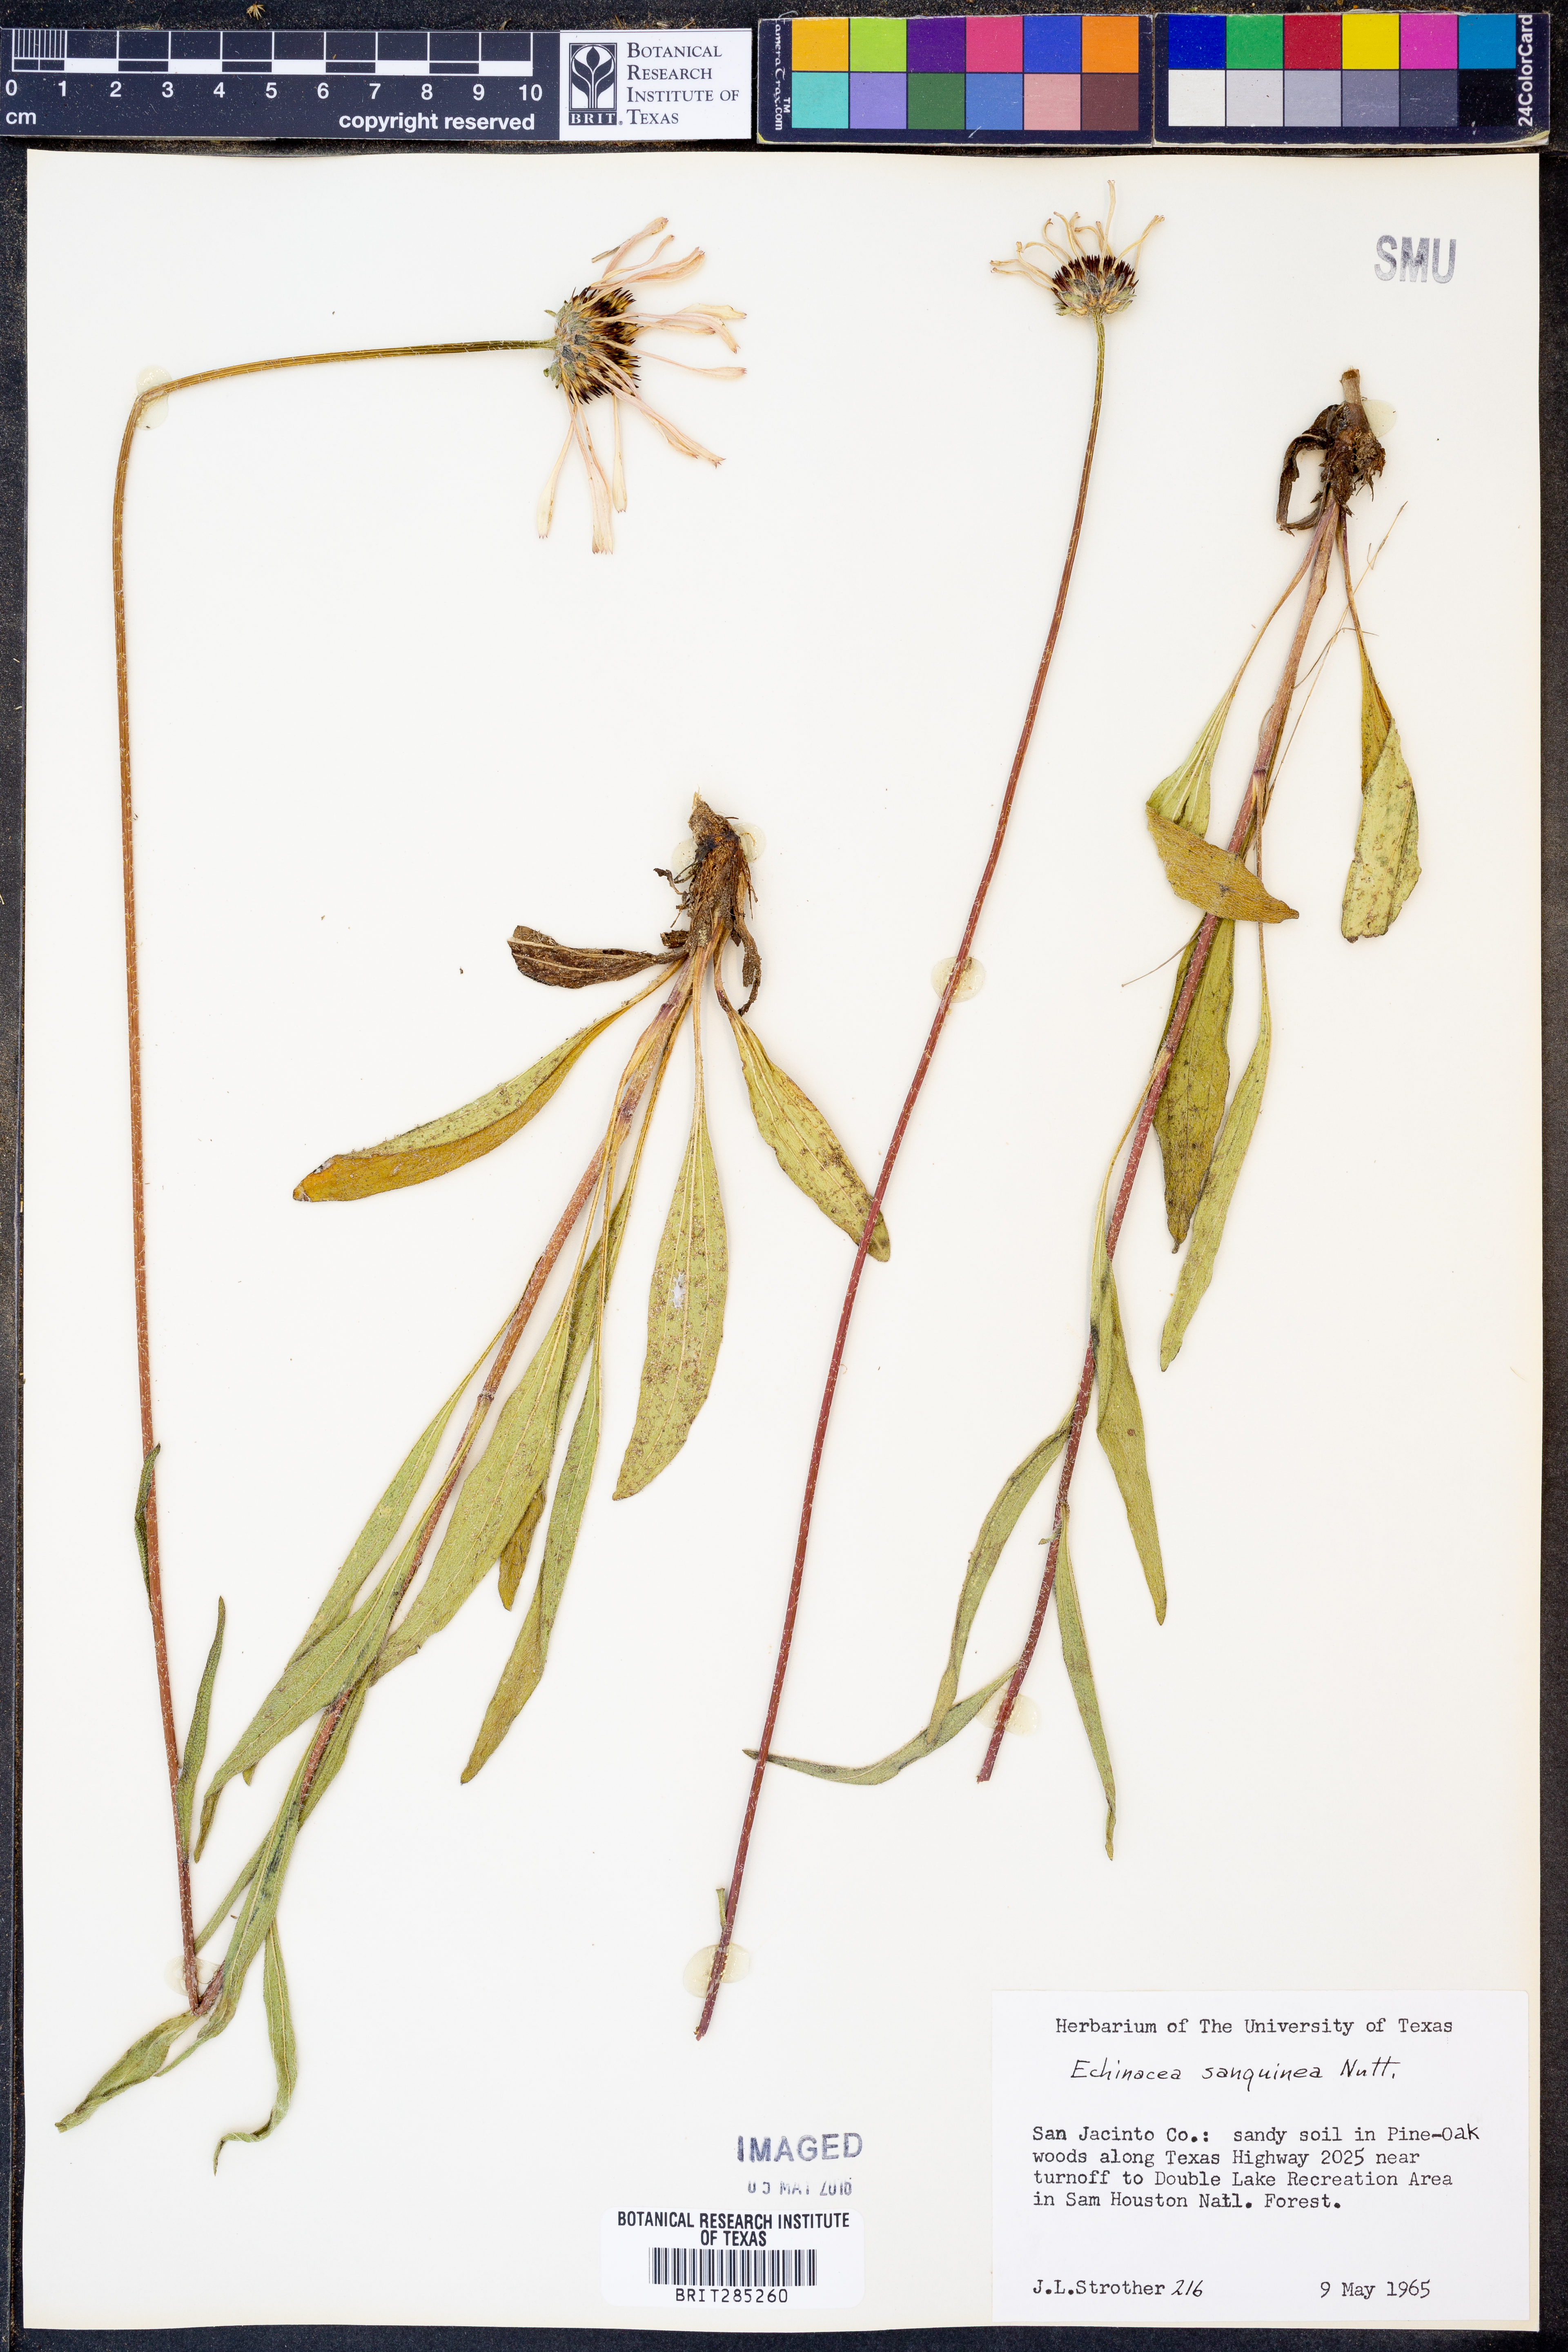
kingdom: Plantae
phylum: Tracheophyta
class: Magnoliopsida
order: Asterales
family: Asteraceae
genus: Echinacea
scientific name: Echinacea sanguinea
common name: Sanguine purple-coneflower
